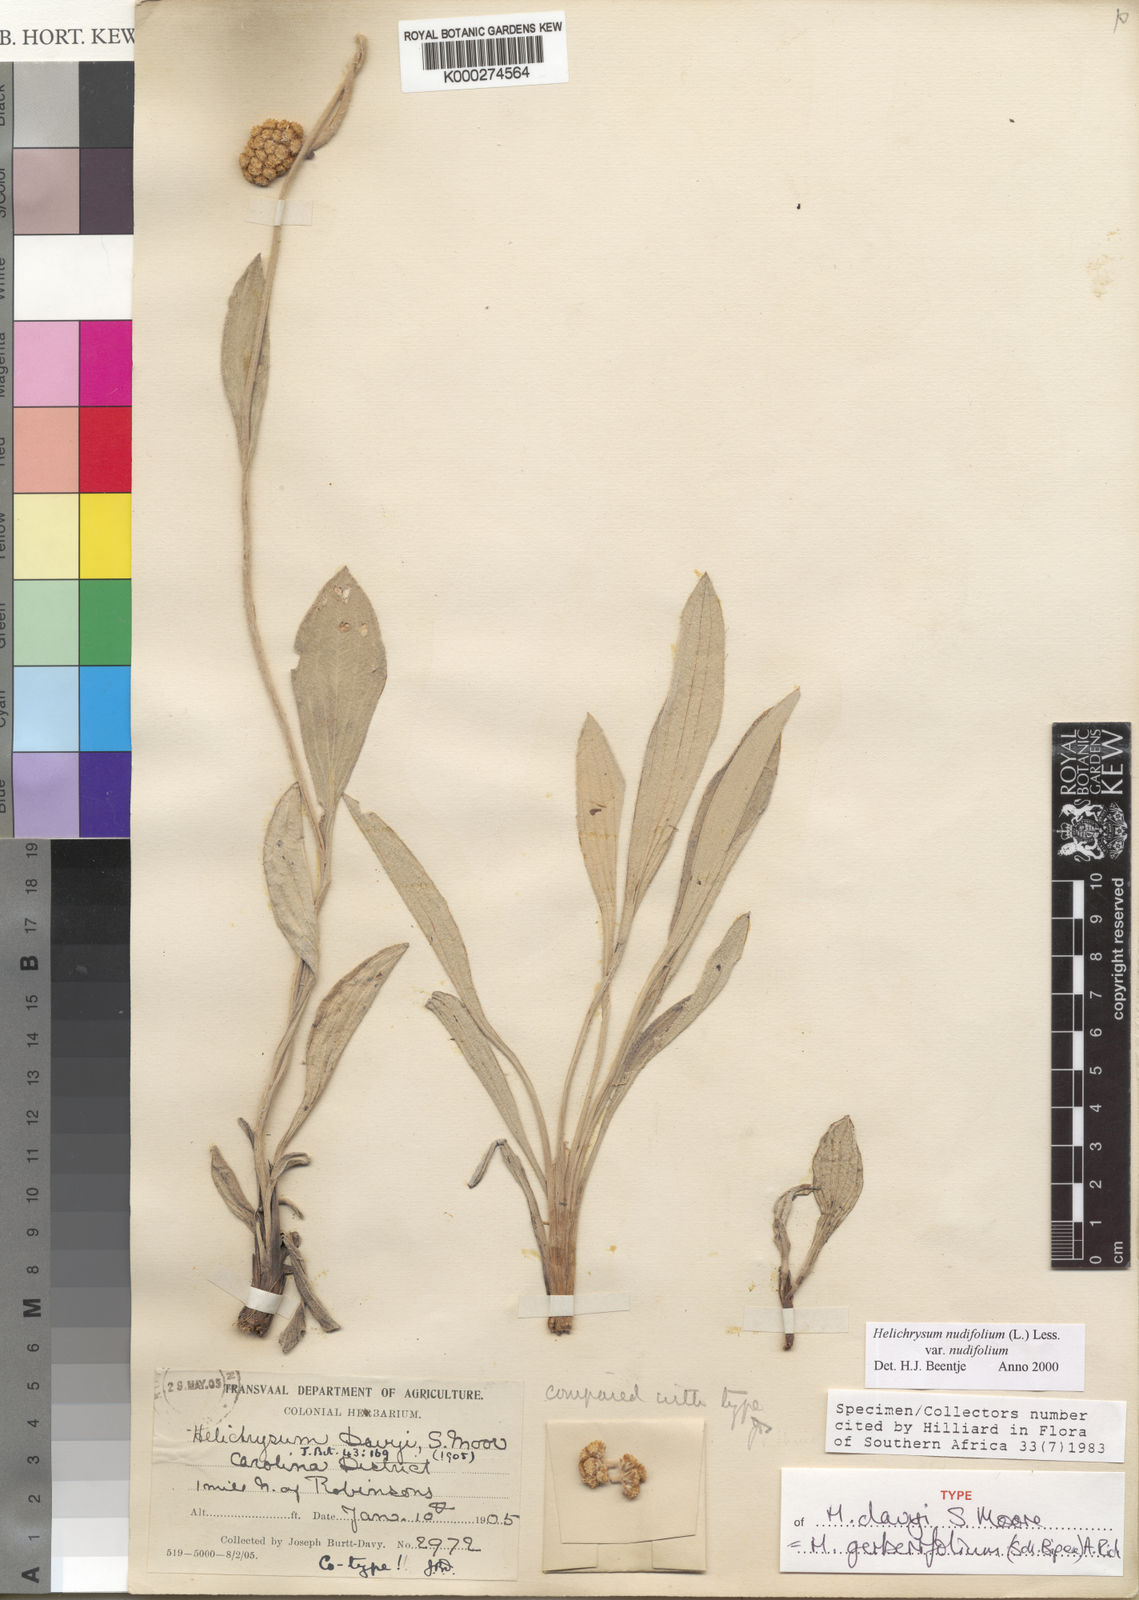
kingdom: Plantae
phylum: Tracheophyta
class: Magnoliopsida
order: Asterales
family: Asteraceae
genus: Helichrysum
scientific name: Helichrysum nudifolium
